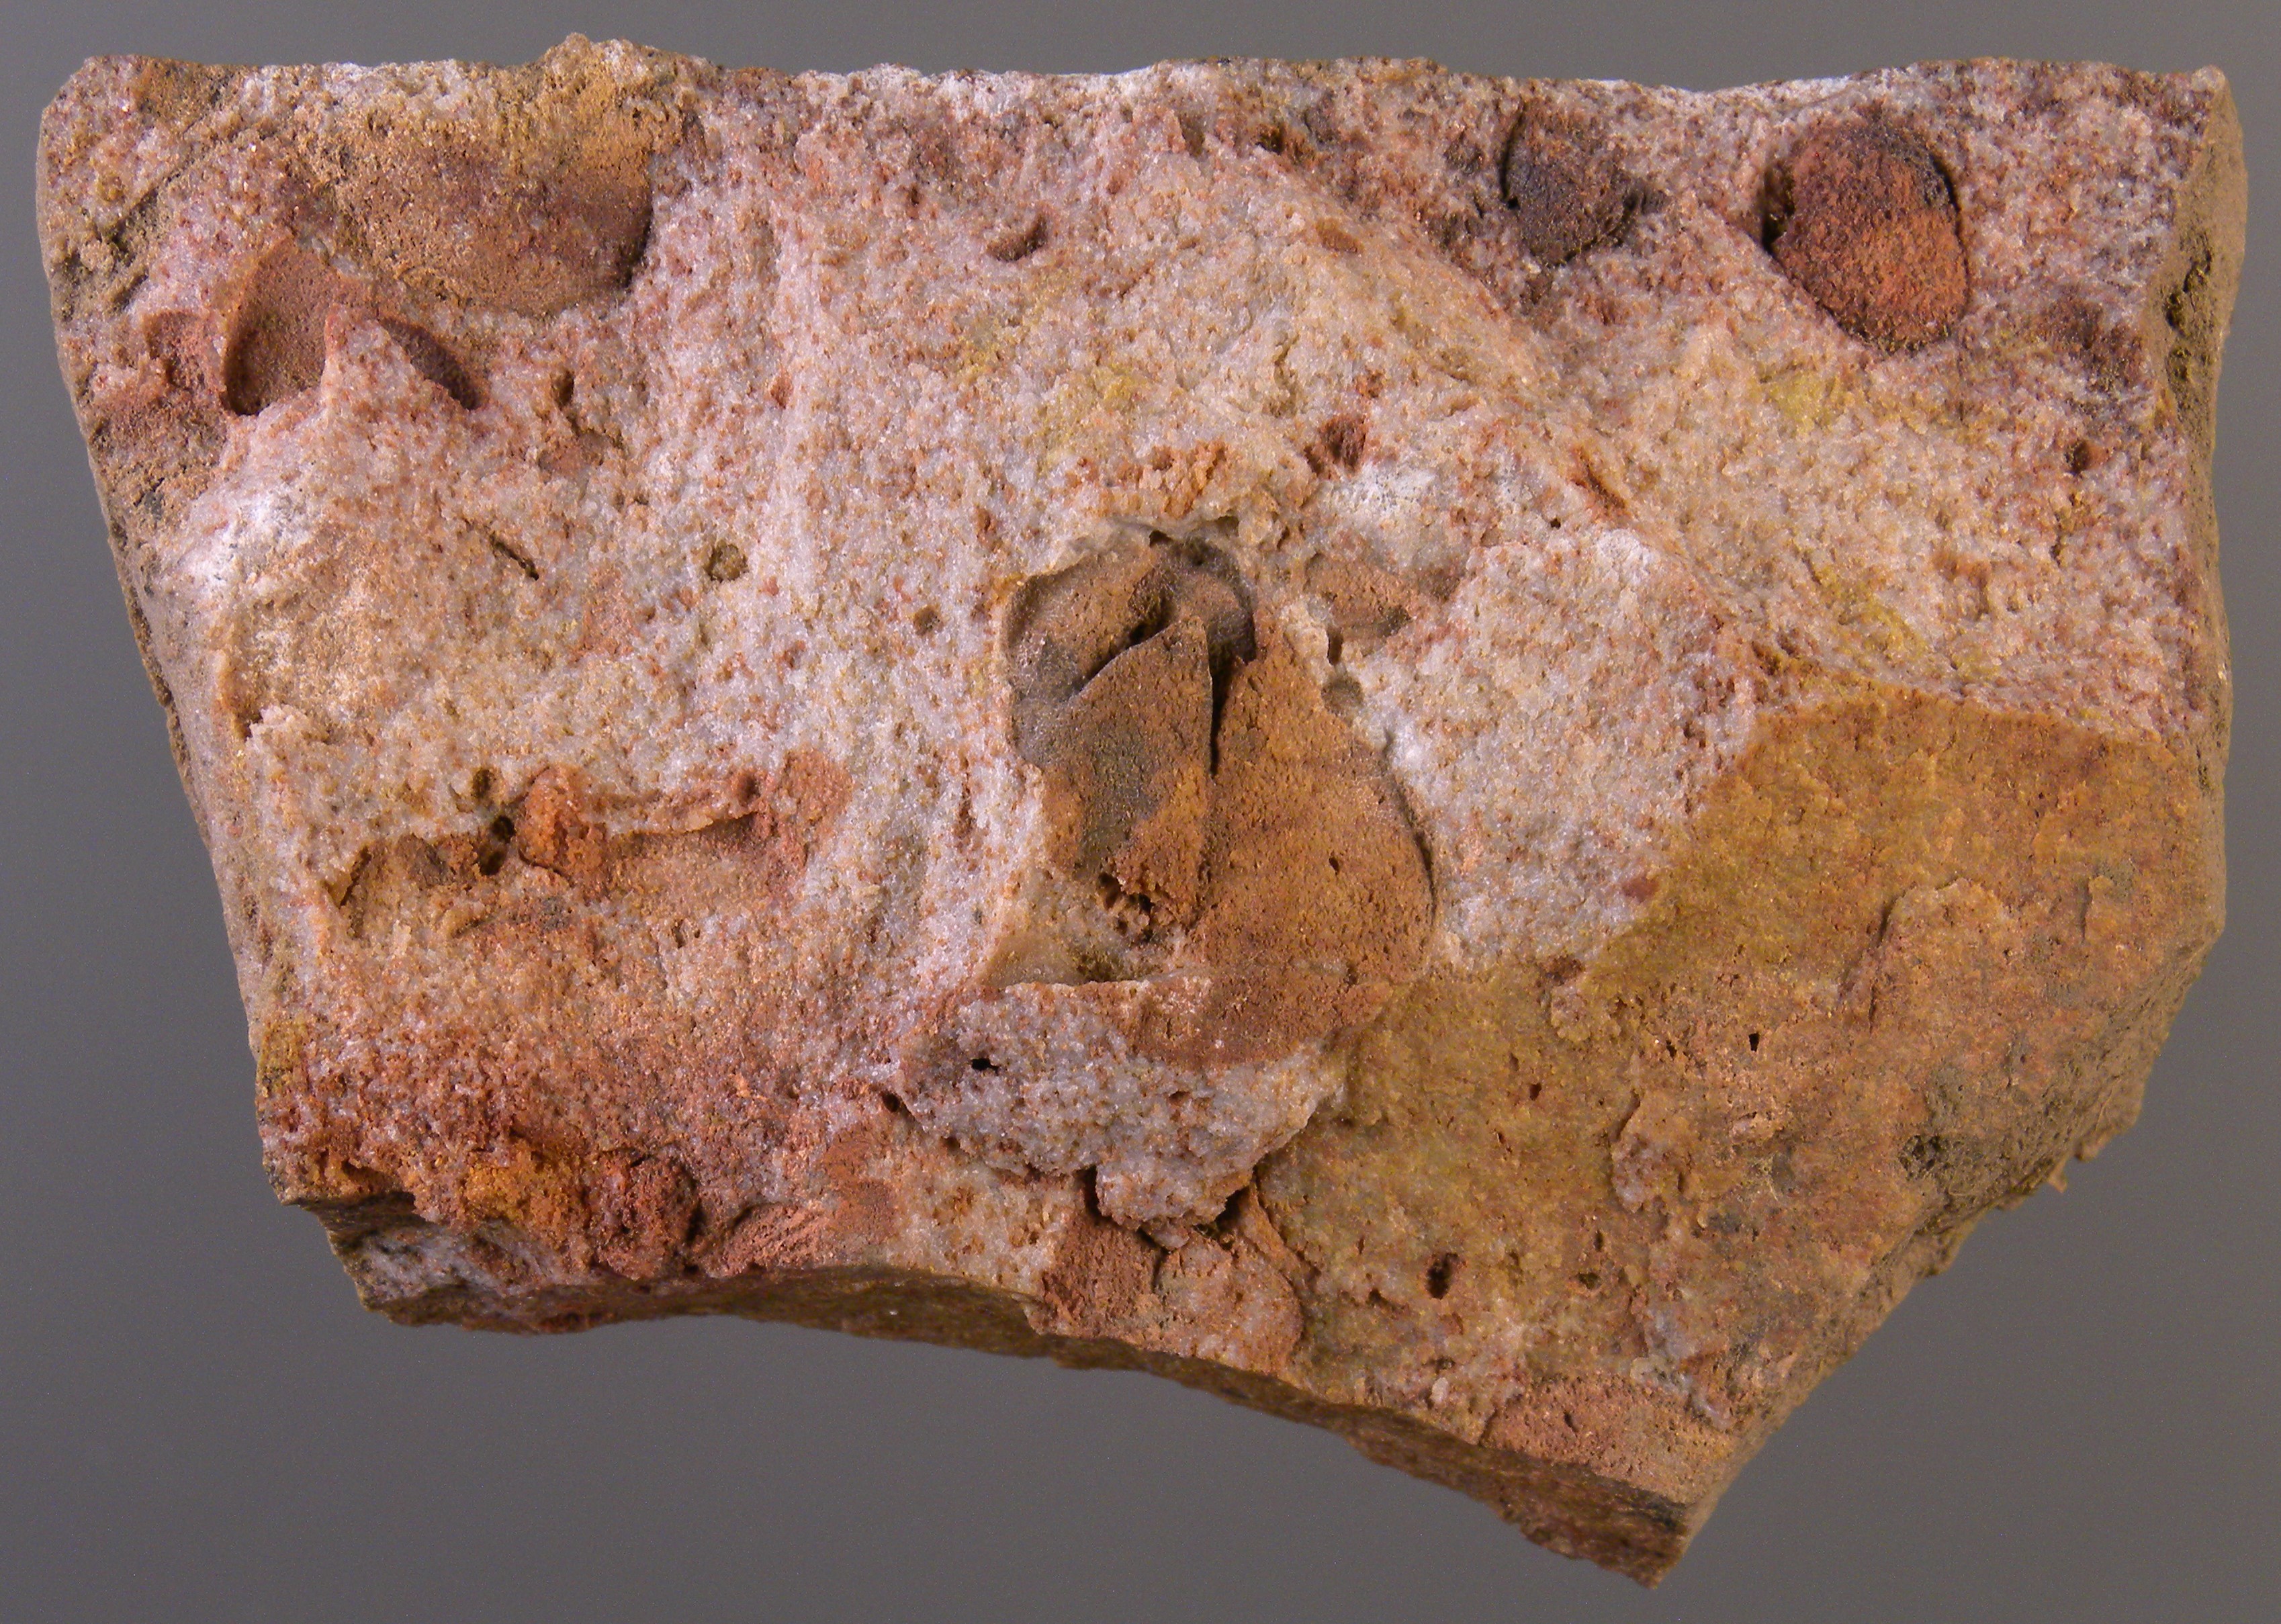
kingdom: Animalia
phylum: Brachiopoda
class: Rhynchonellata
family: Rhipidomellidae
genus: Platyorthis
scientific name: Platyorthis
